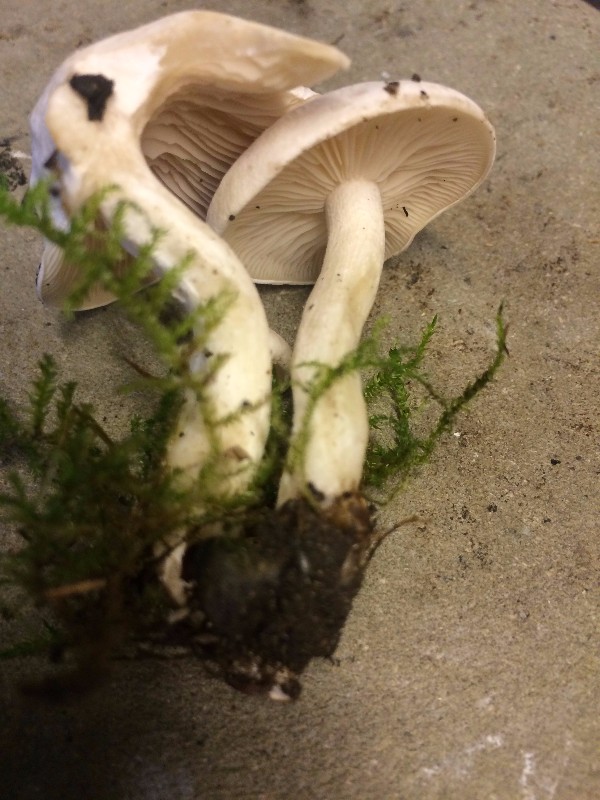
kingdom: Fungi
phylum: Basidiomycota
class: Agaricomycetes
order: Agaricales
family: Tricholomataceae
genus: Leucocybe
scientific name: Leucocybe connata
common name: knippe-tragthat
